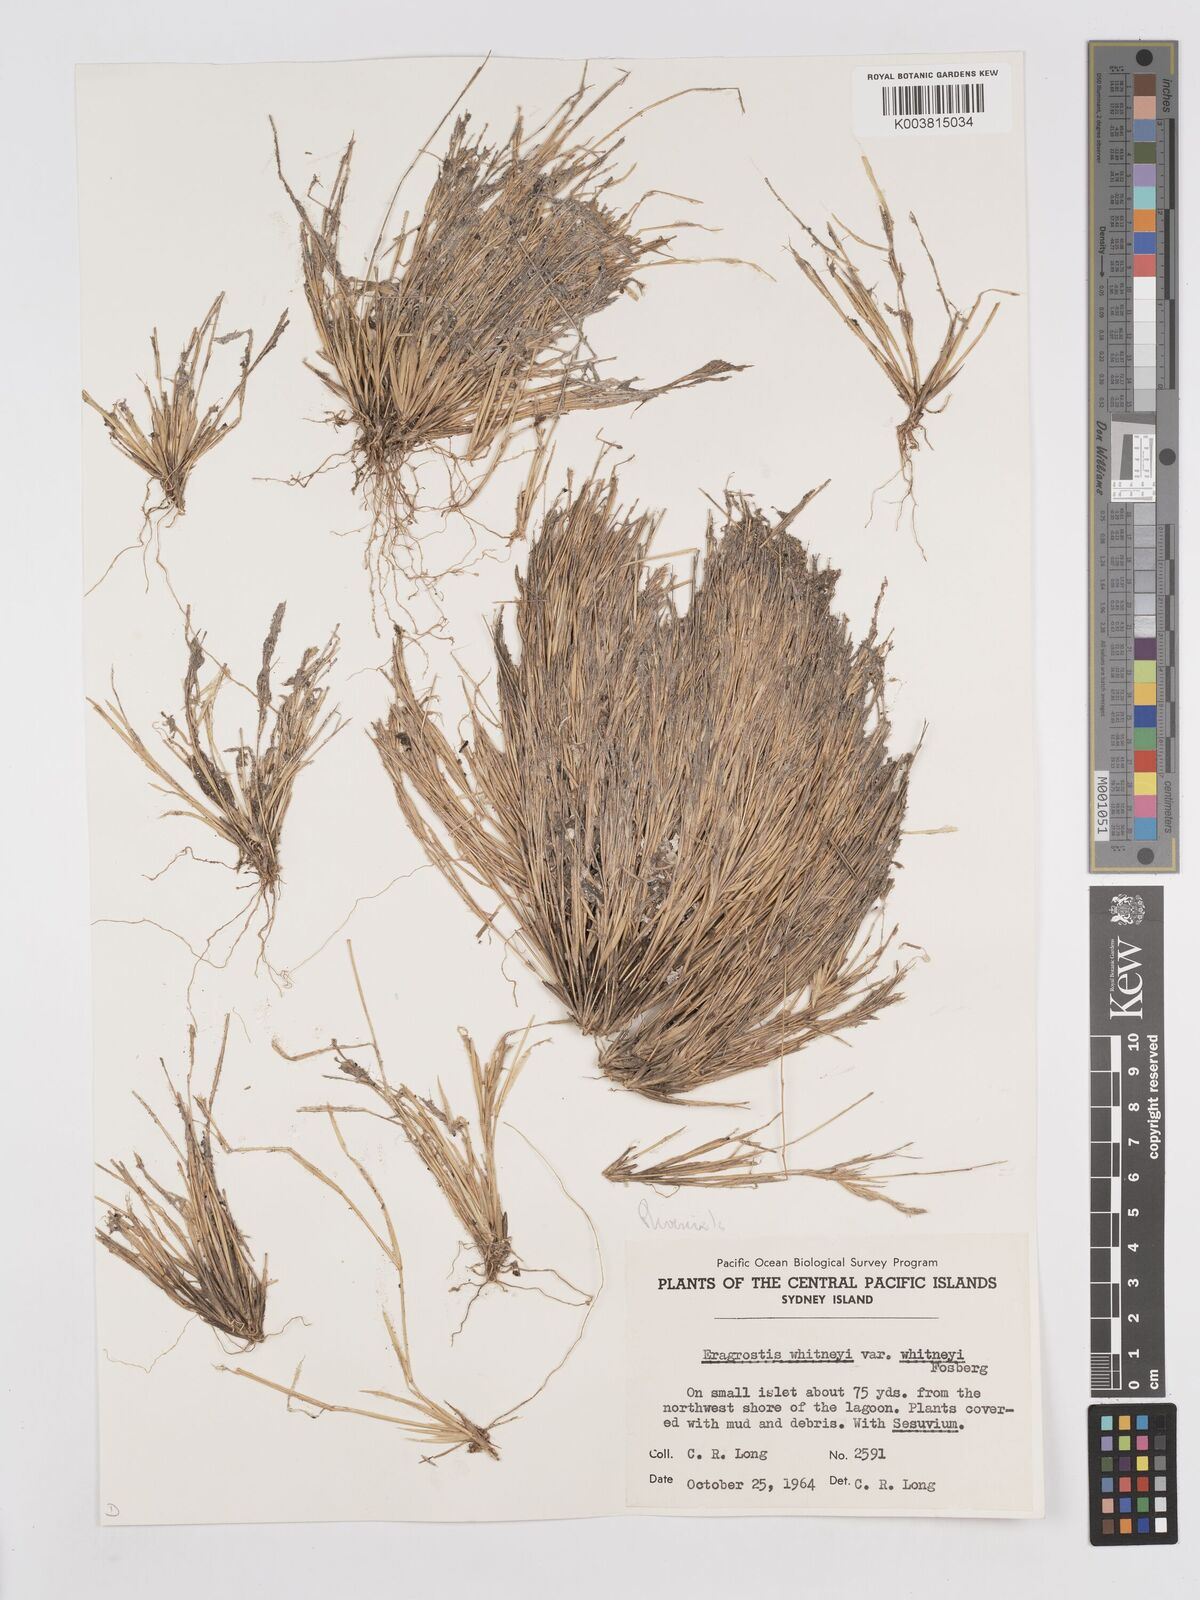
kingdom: Plantae
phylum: Tracheophyta
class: Liliopsida
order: Poales
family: Poaceae
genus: Eragrostis
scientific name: Eragrostis paupera
